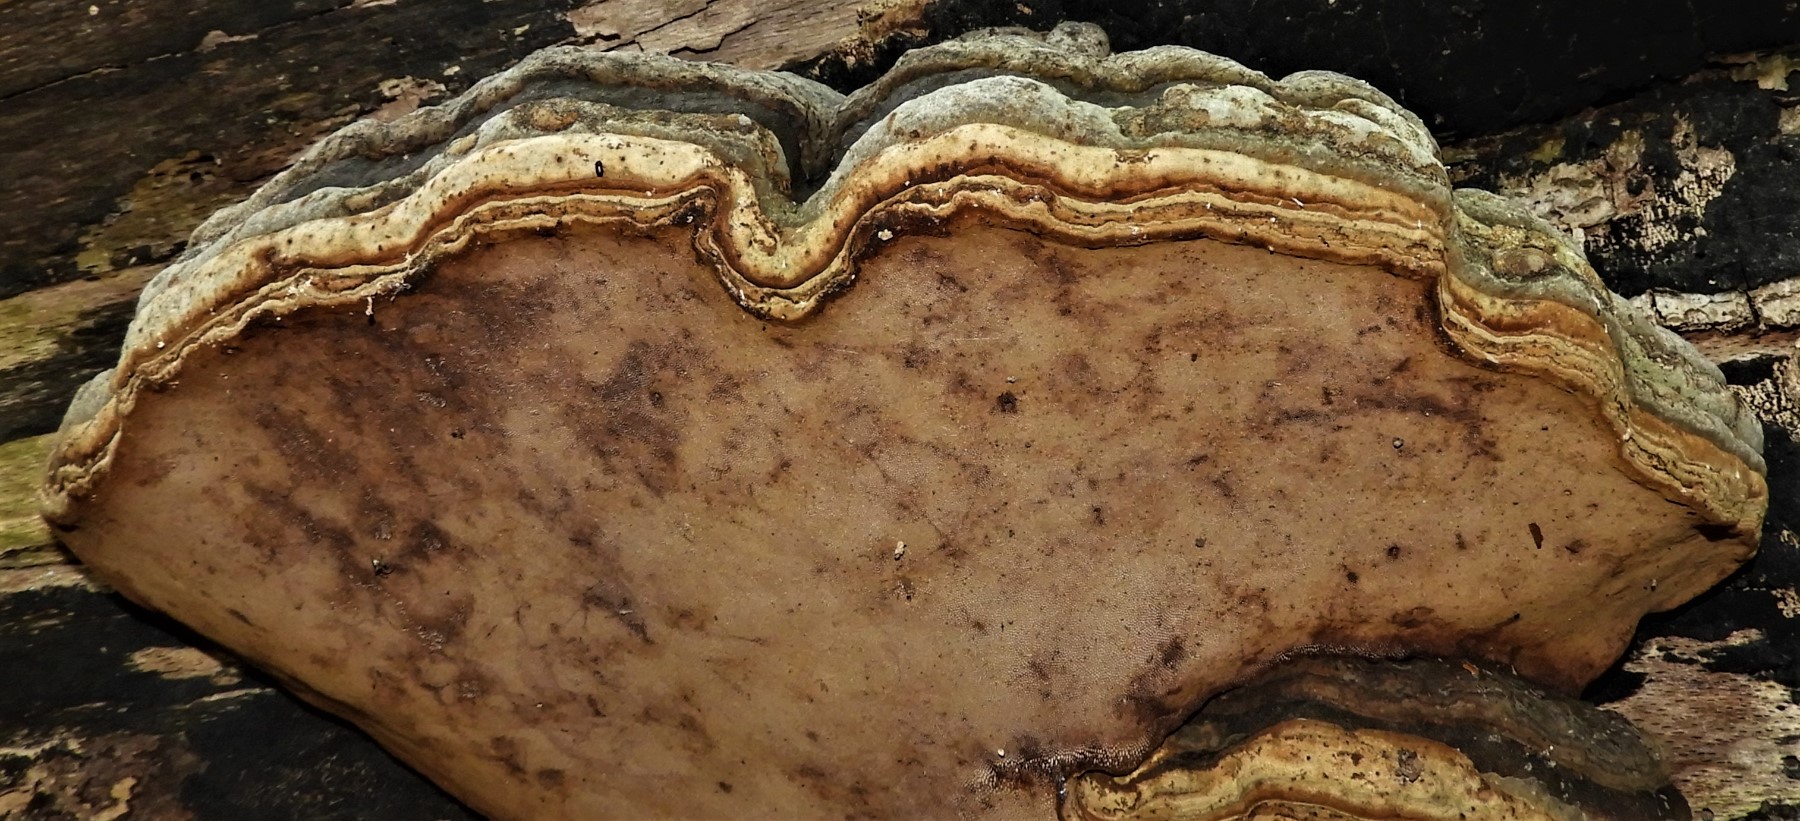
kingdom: Fungi
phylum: Basidiomycota
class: Agaricomycetes
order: Polyporales
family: Polyporaceae
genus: Fomes
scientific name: Fomes fomentarius
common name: tøndersvamp
